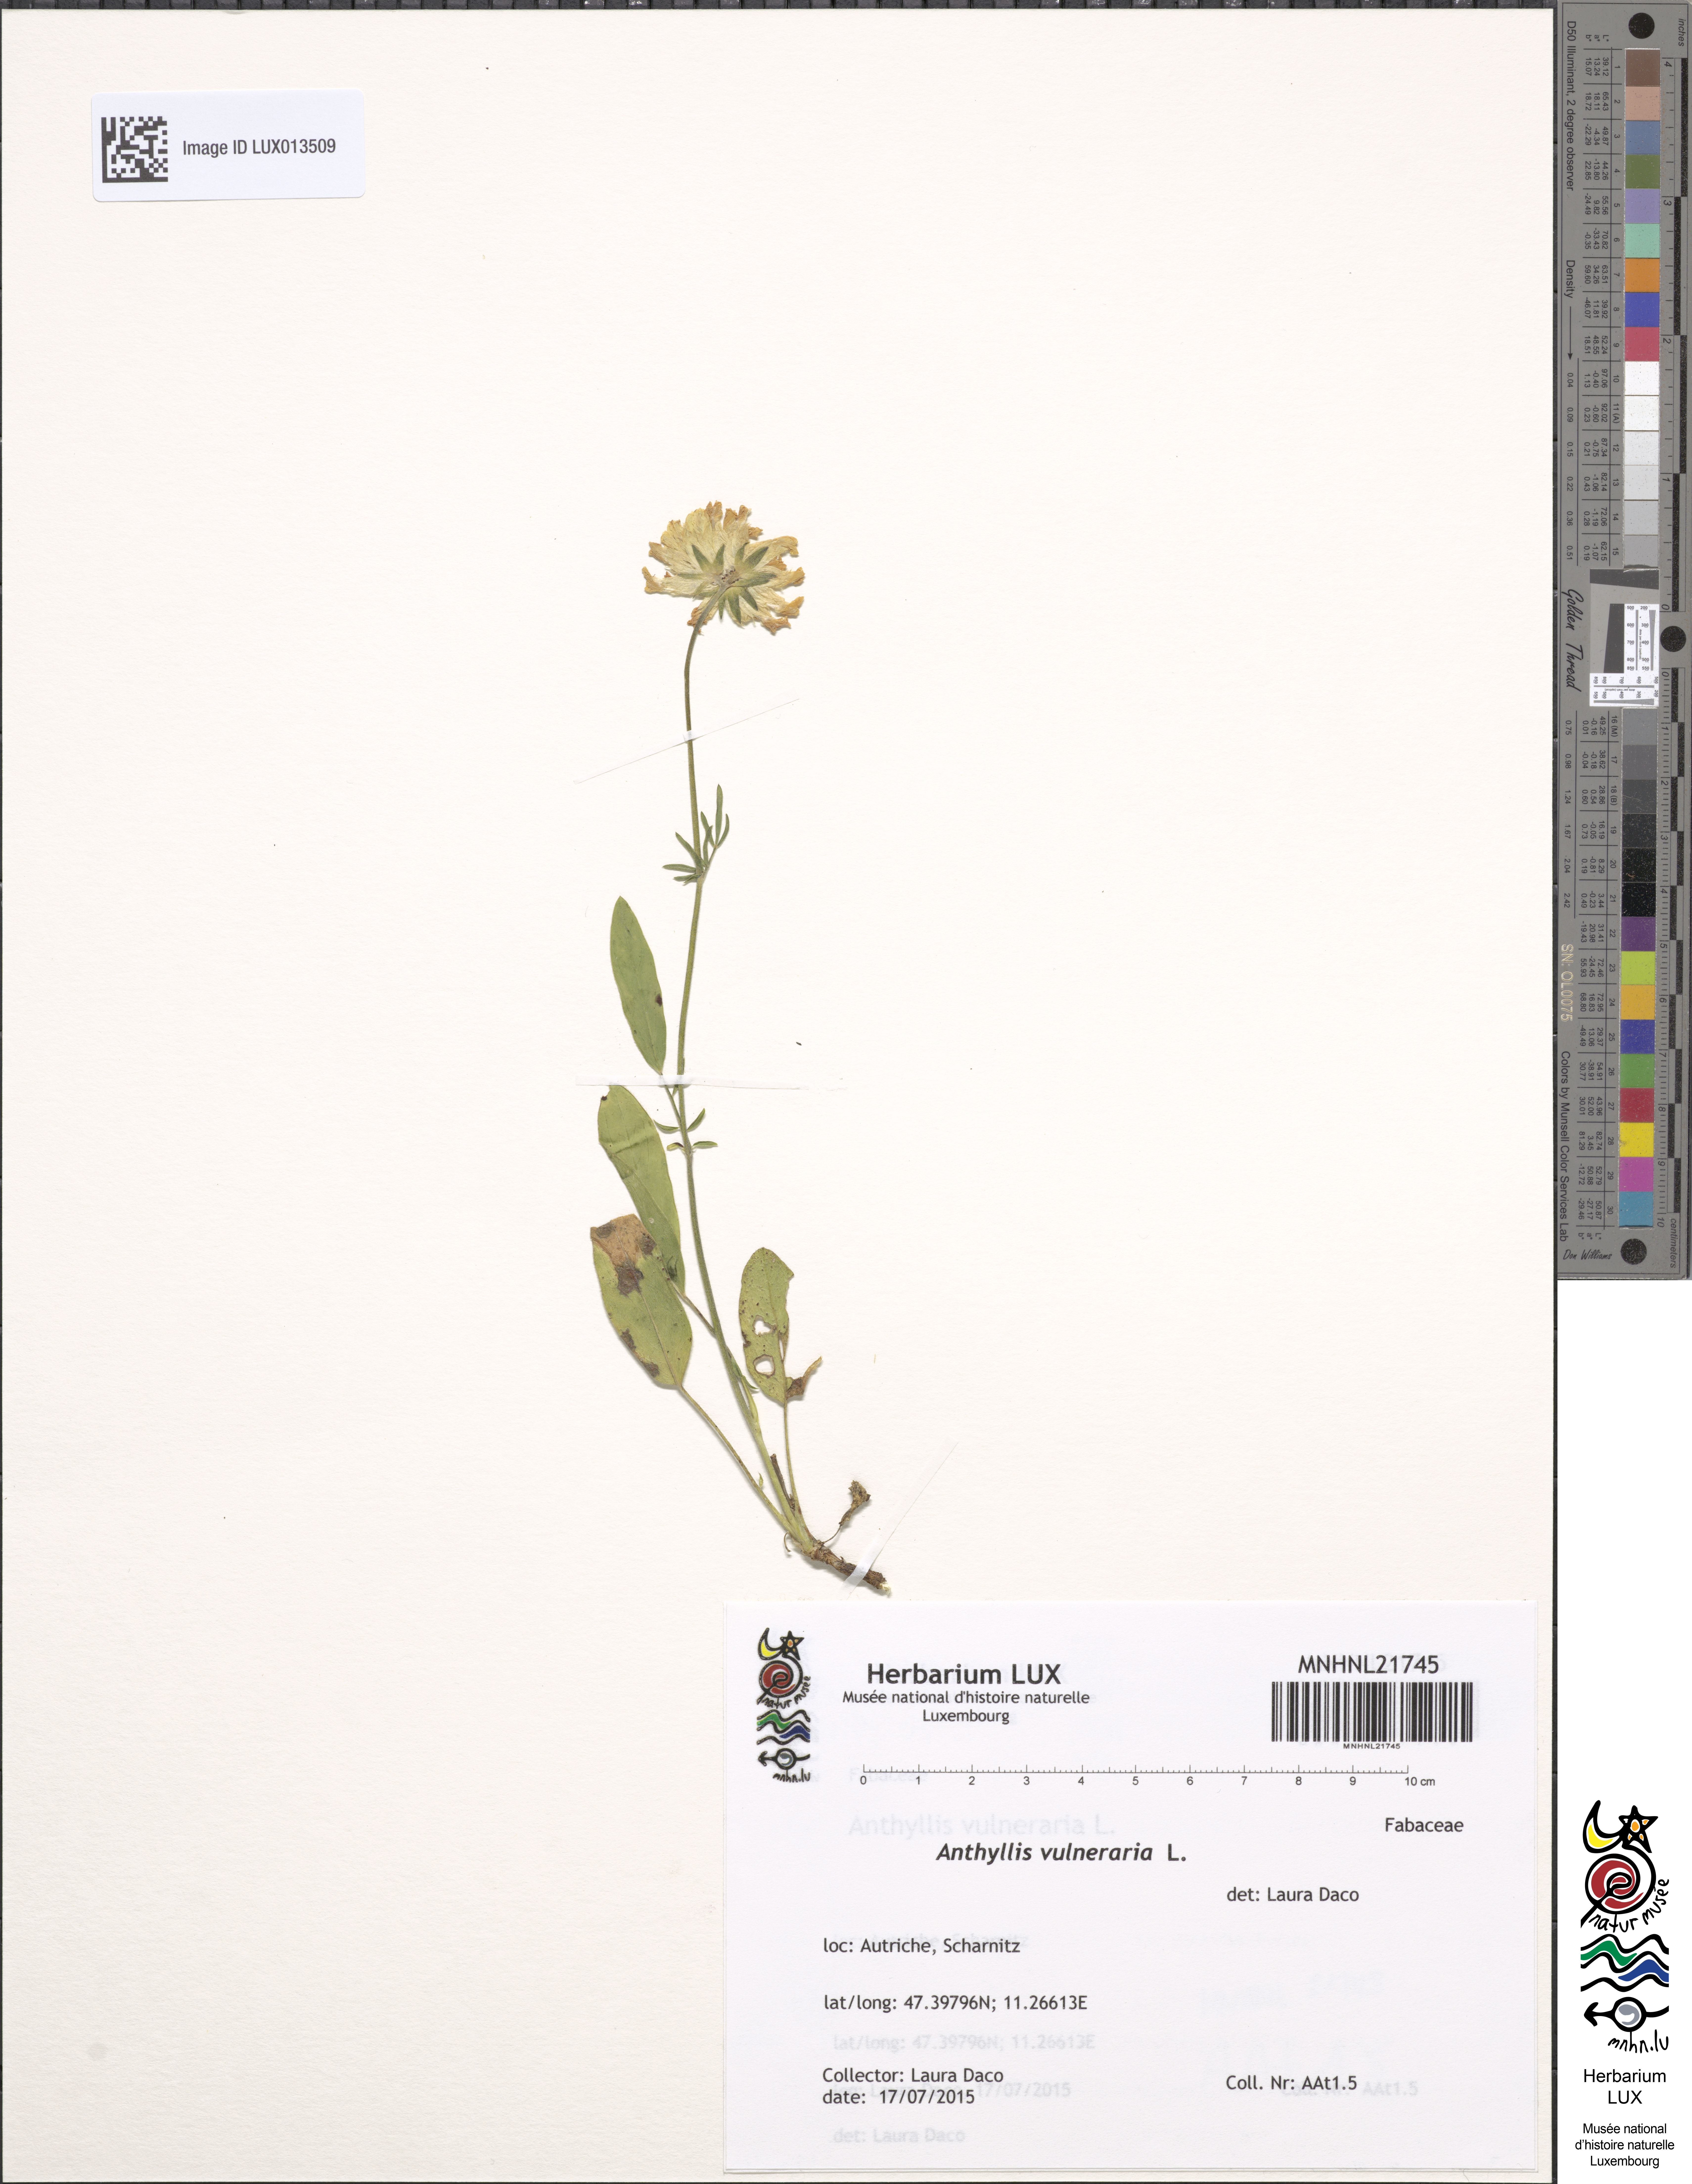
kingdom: Plantae
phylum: Tracheophyta
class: Magnoliopsida
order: Fabales
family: Fabaceae
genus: Anthyllis
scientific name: Anthyllis vulneraria
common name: Kidney vetch
